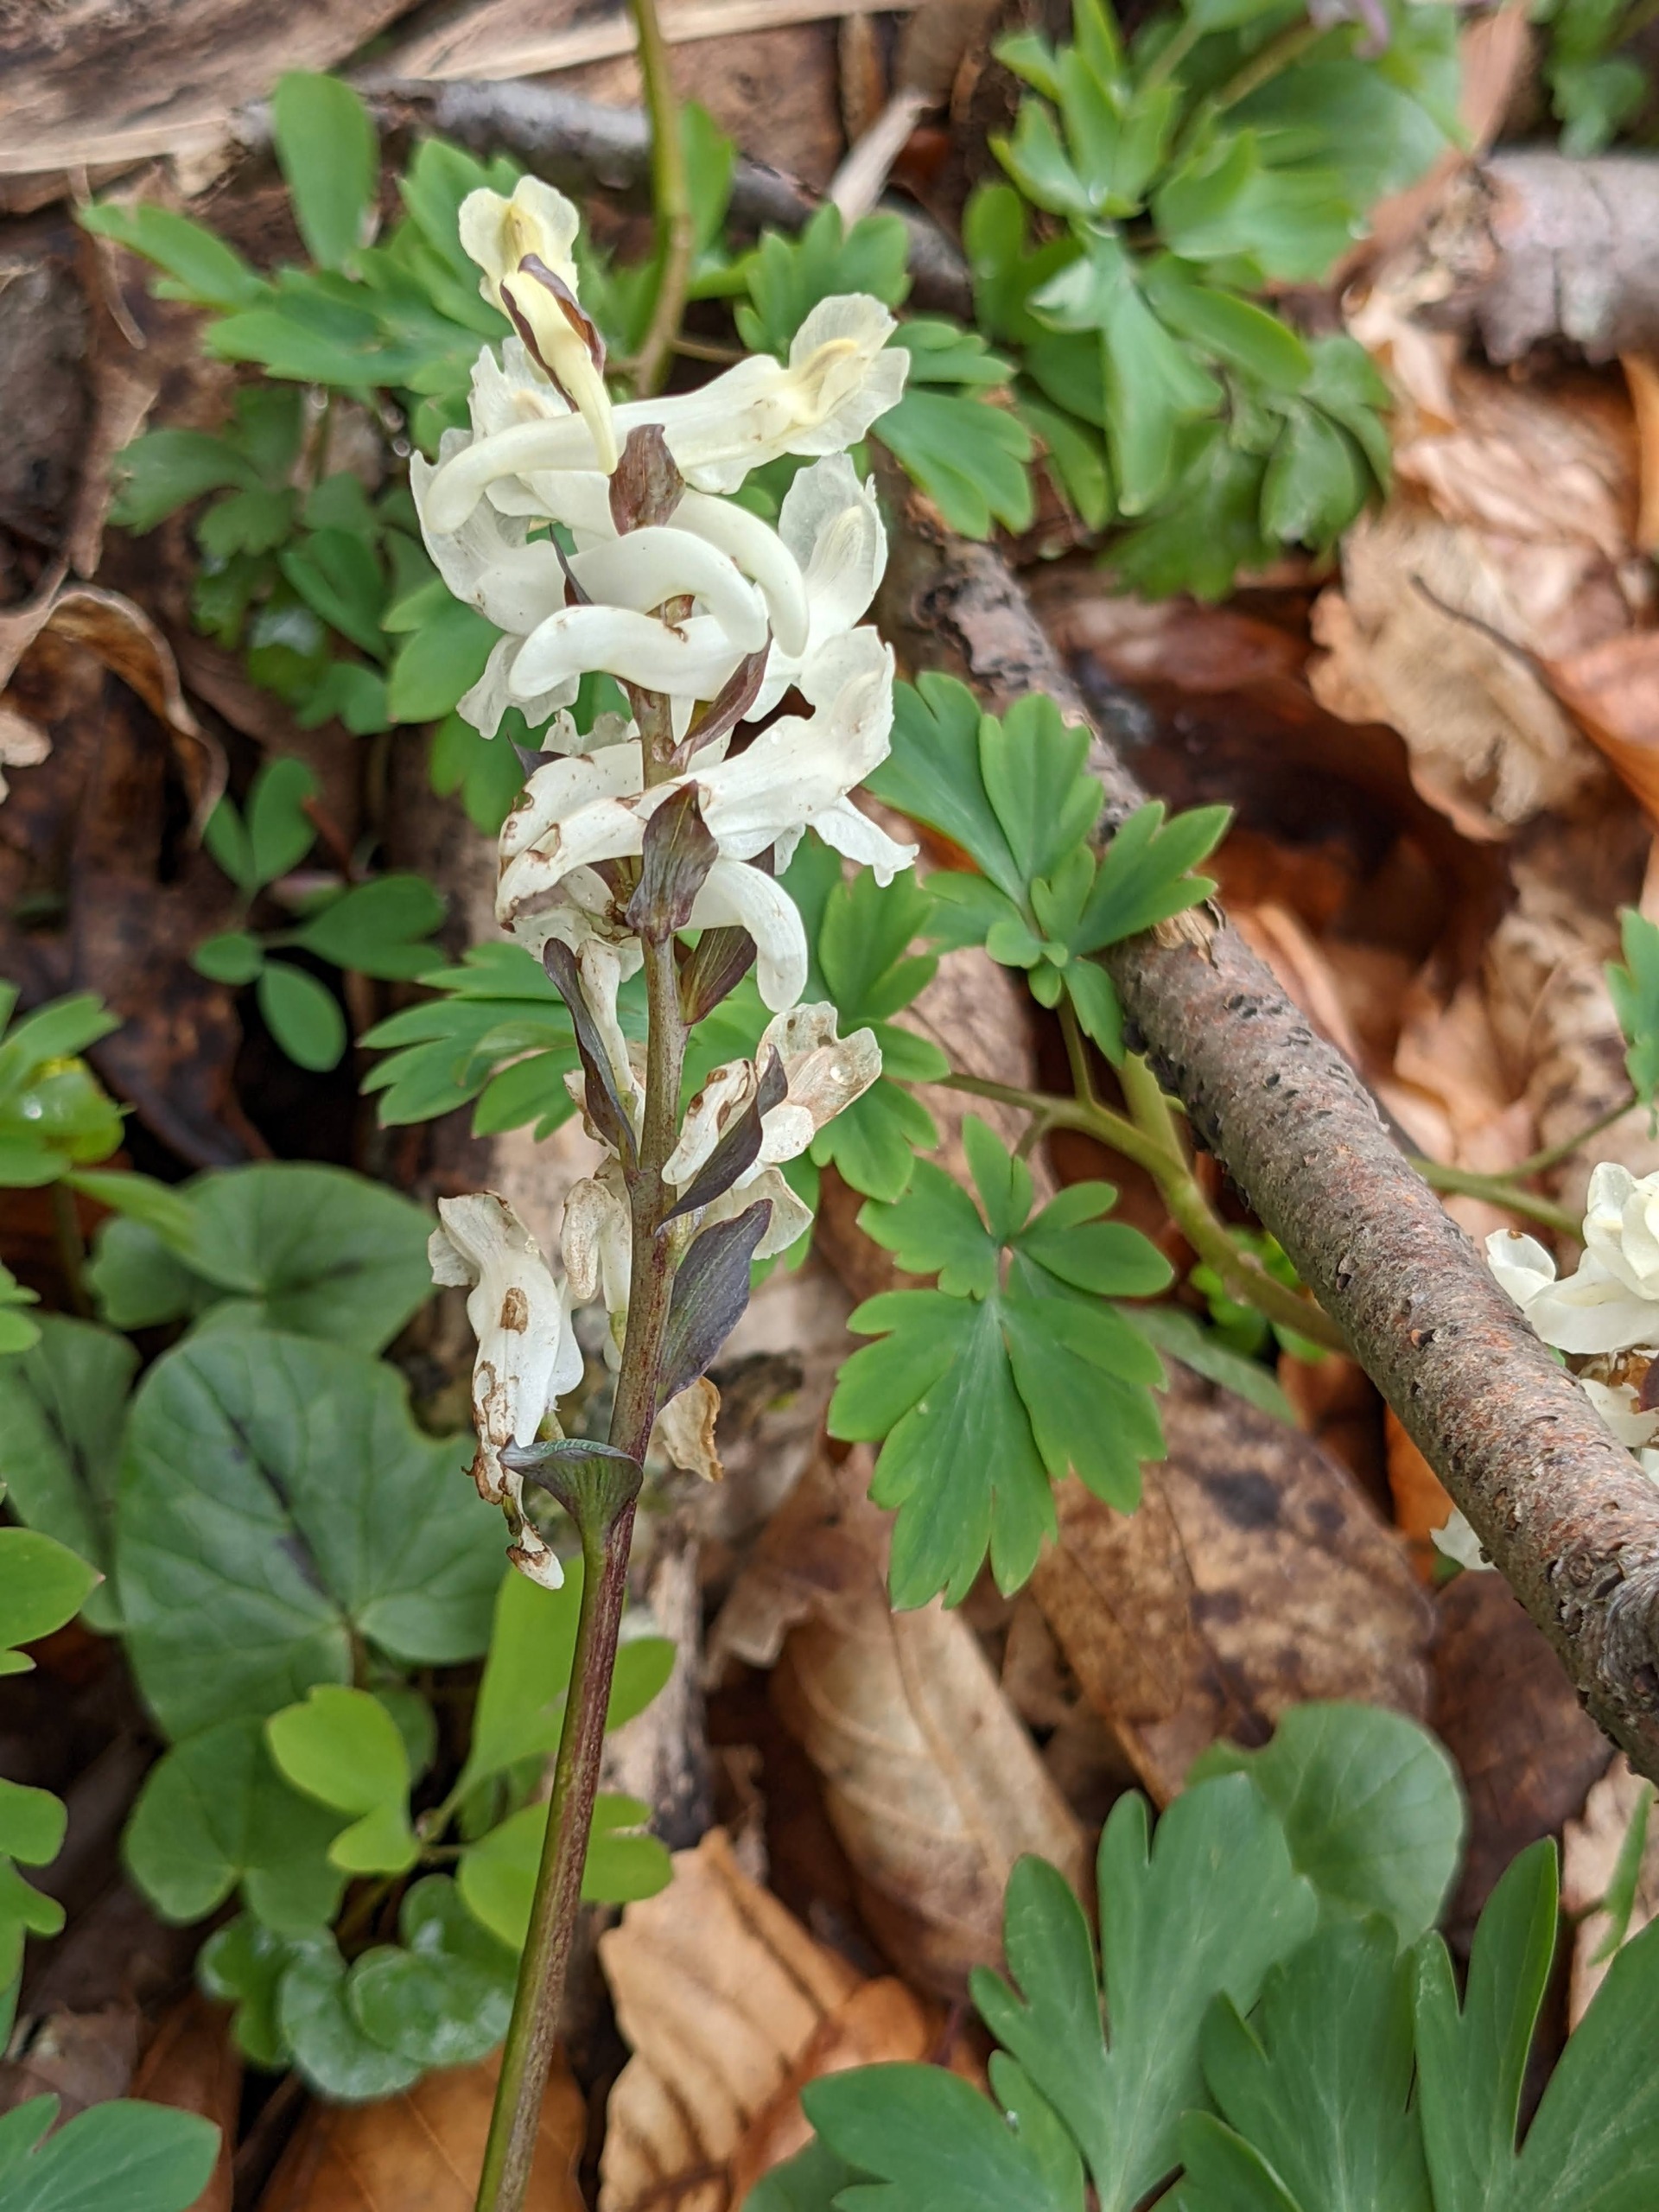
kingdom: Plantae
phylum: Tracheophyta
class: Magnoliopsida
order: Ranunculales
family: Papaveraceae
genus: Corydalis
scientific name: Corydalis cava
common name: Hulrodet lærkespore
